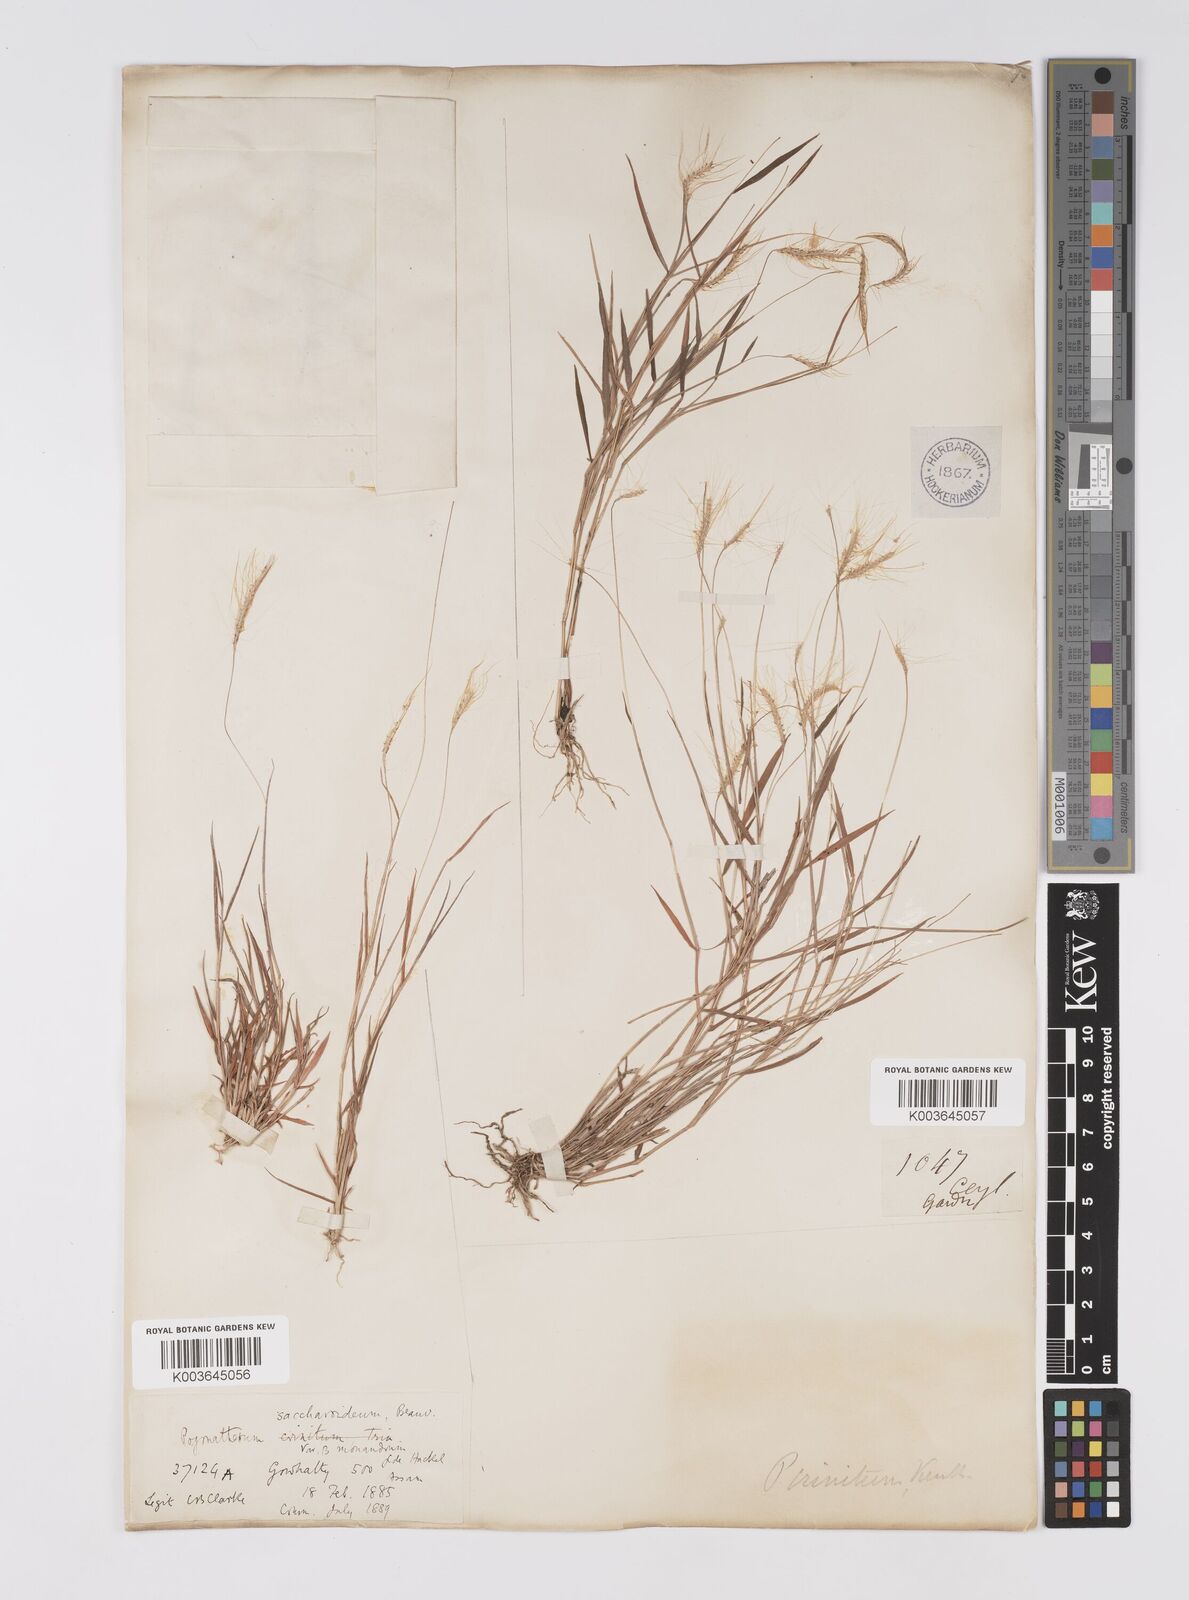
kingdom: Plantae
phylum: Tracheophyta
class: Liliopsida
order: Poales
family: Poaceae
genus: Pogonatherum
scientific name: Pogonatherum crinitum
